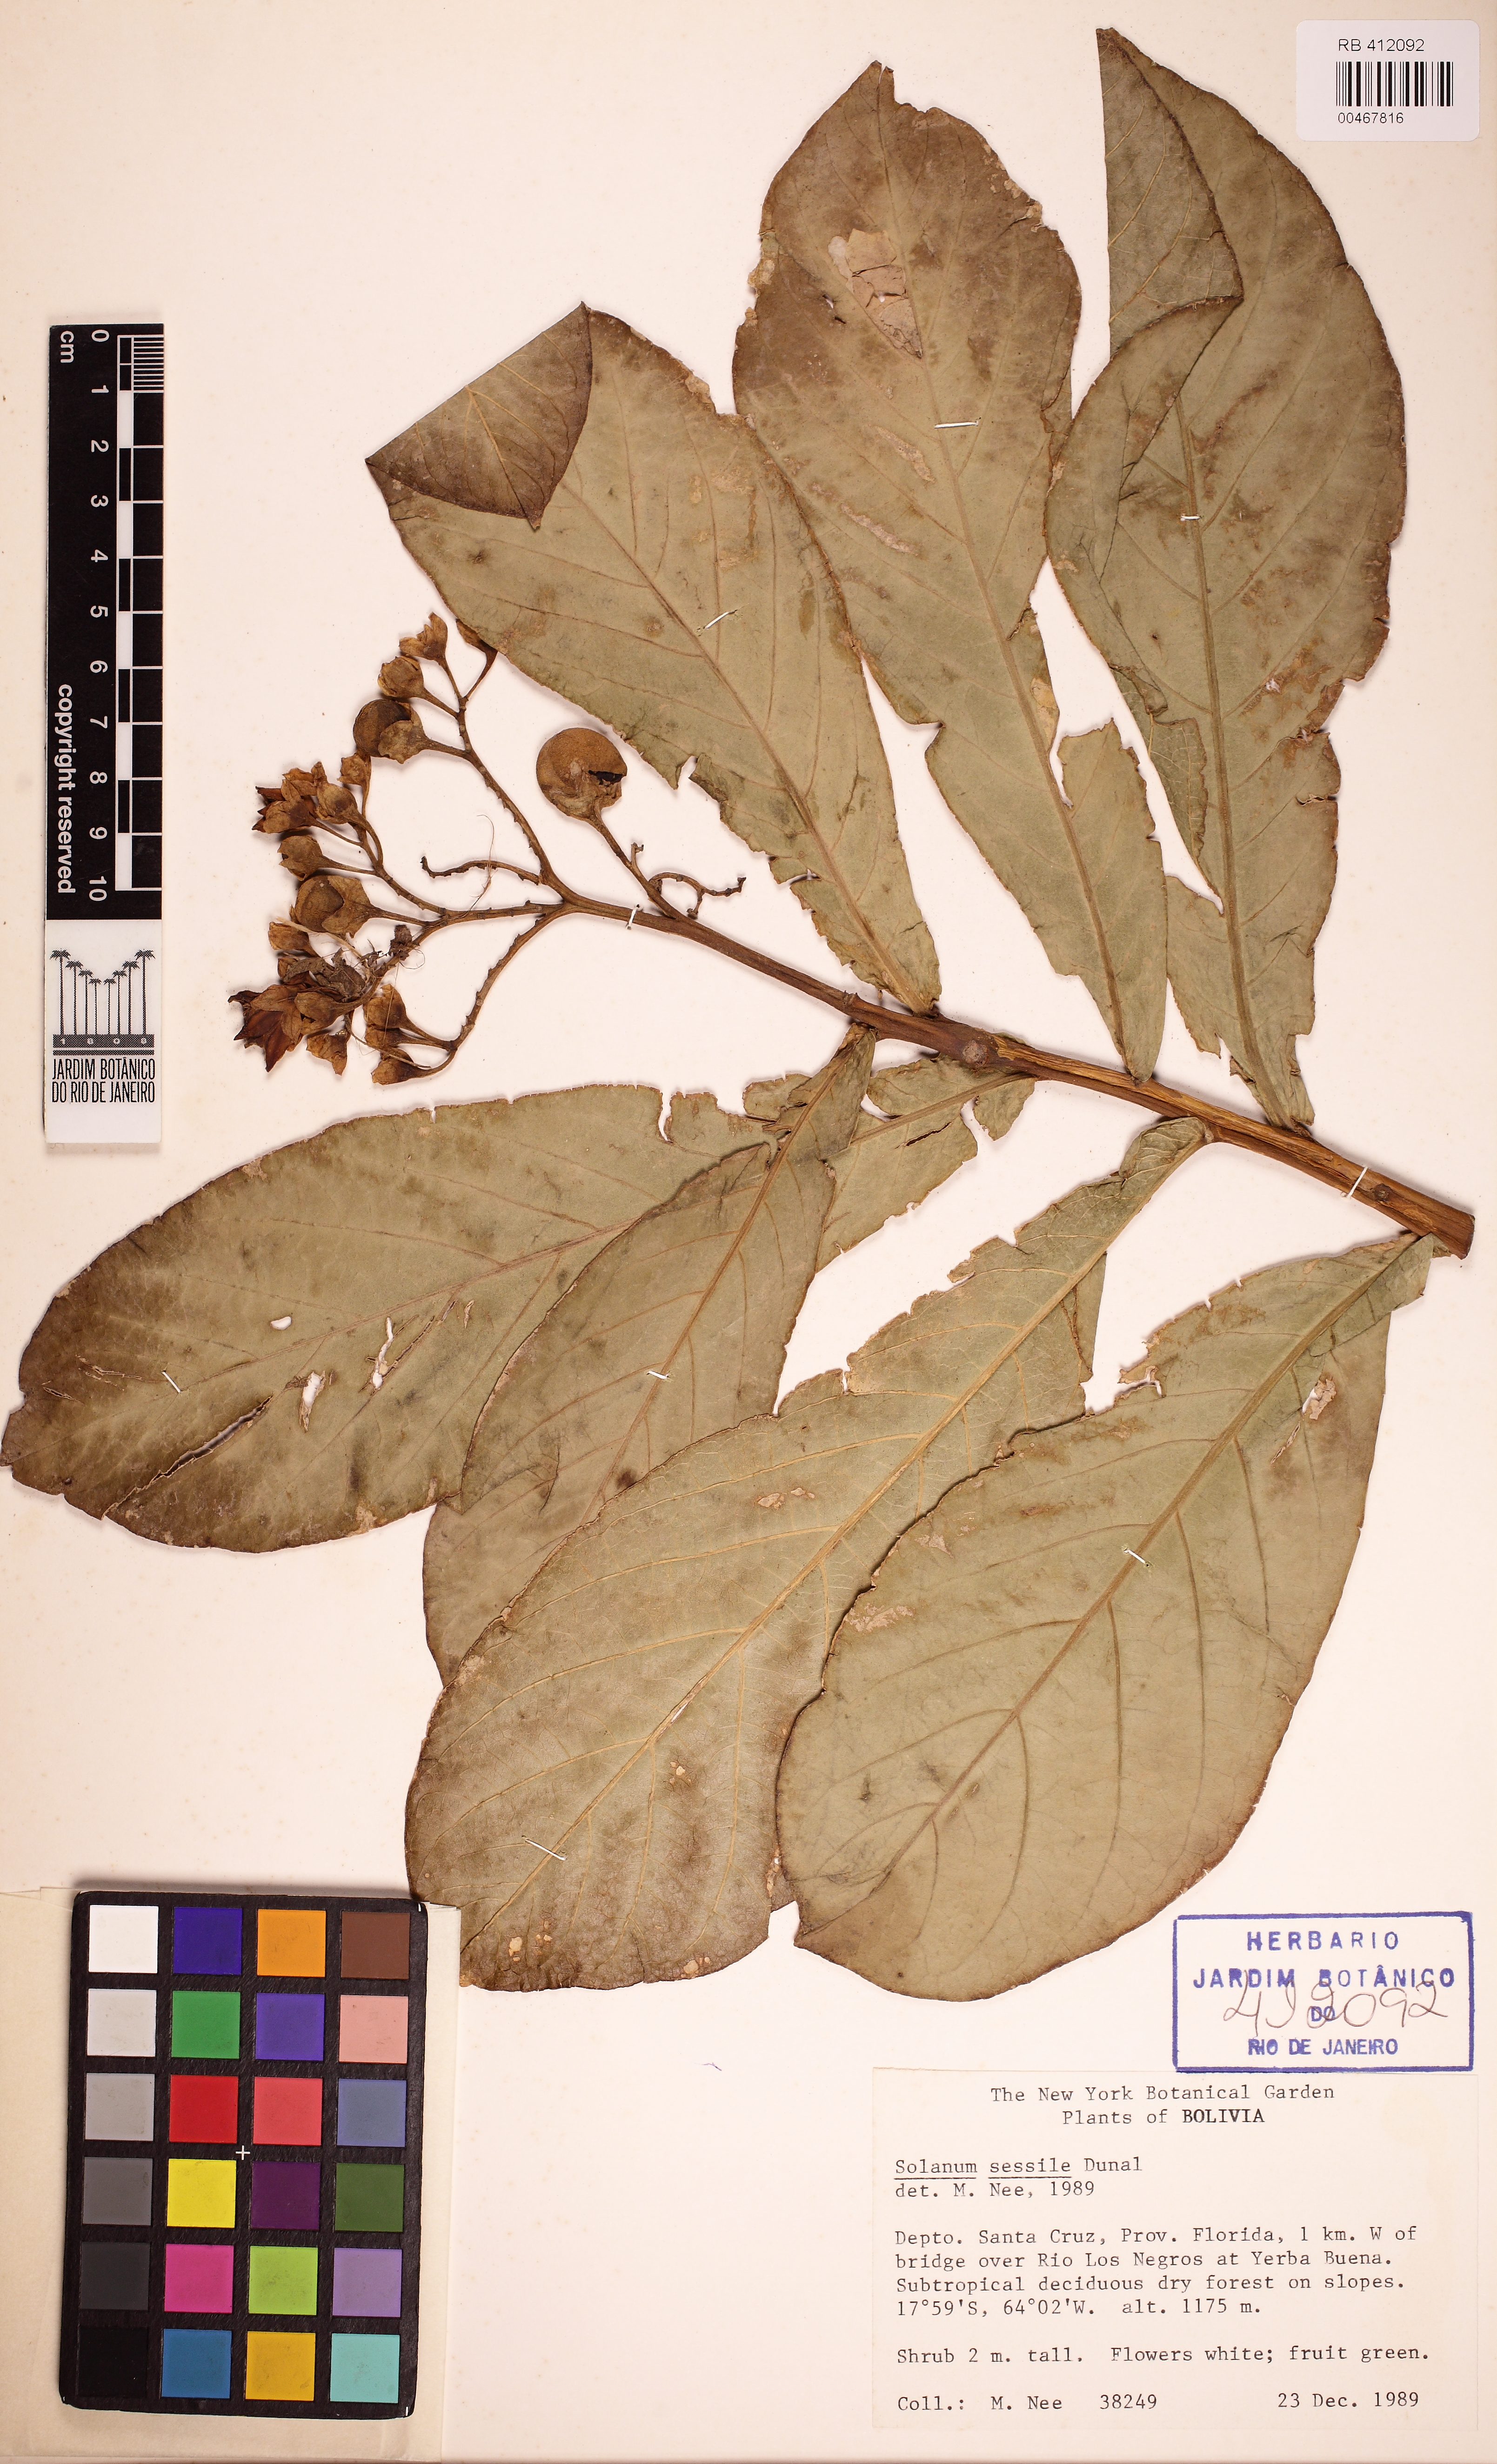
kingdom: Plantae
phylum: Tracheophyta
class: Magnoliopsida
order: Solanales
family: Solanaceae
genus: Solanum
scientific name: Solanum sessile
